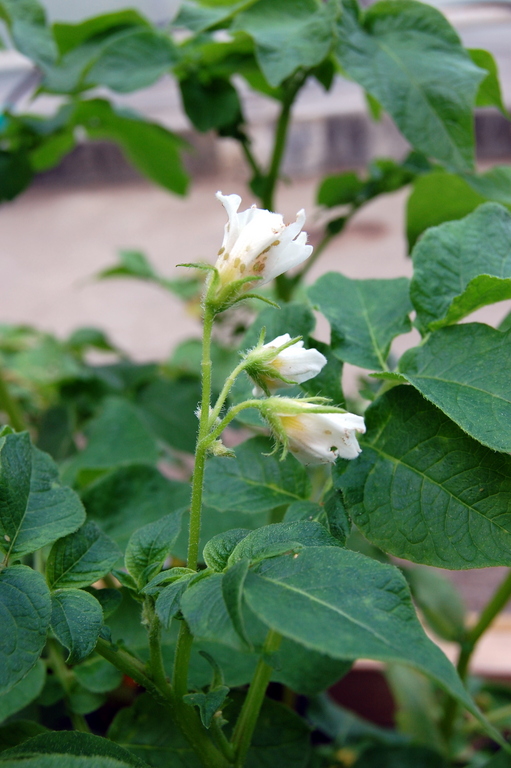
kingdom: Plantae
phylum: Tracheophyta
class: Magnoliopsida
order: Solanales
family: Solanaceae
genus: Solanum
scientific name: Solanum tuberosum
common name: Potato
